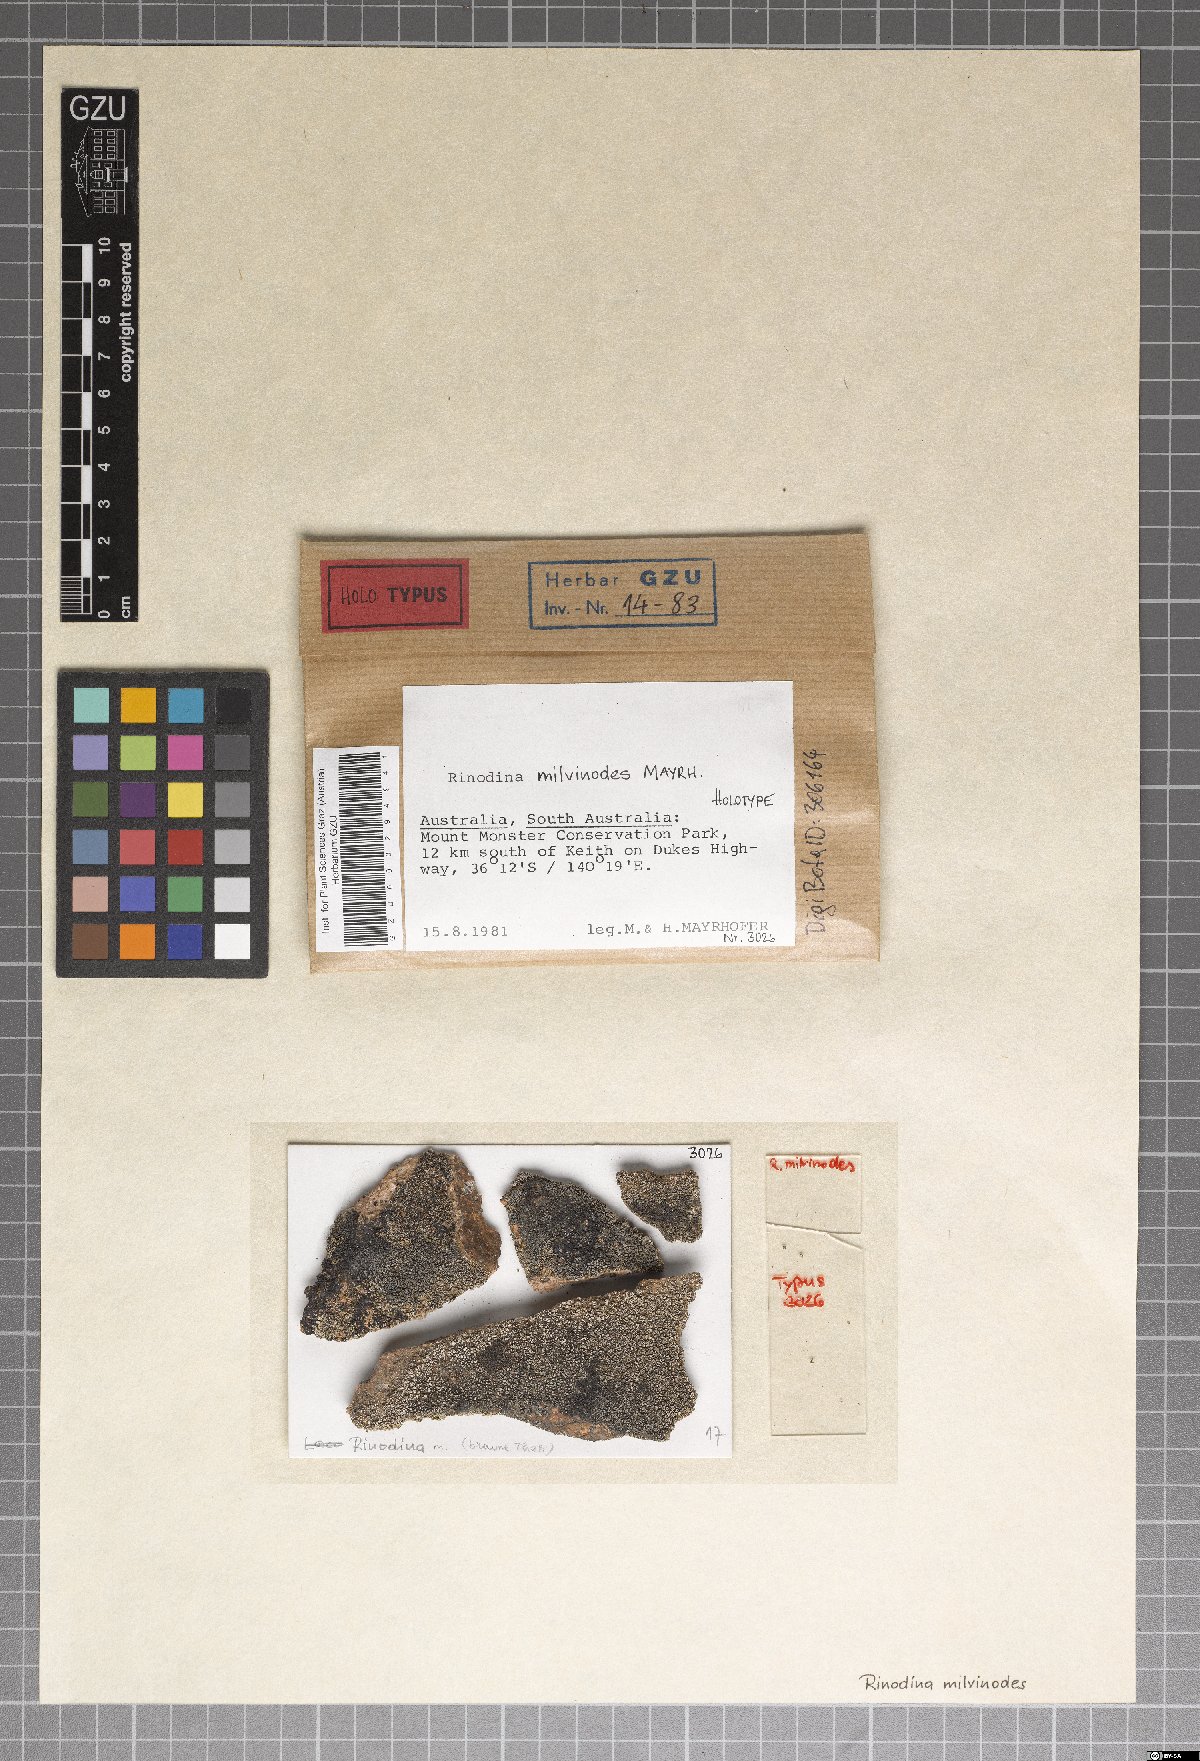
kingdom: Fungi
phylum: Ascomycota
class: Lecanoromycetes
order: Caliciales
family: Physciaceae
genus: Rinodina
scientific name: Rinodina milvinodes
